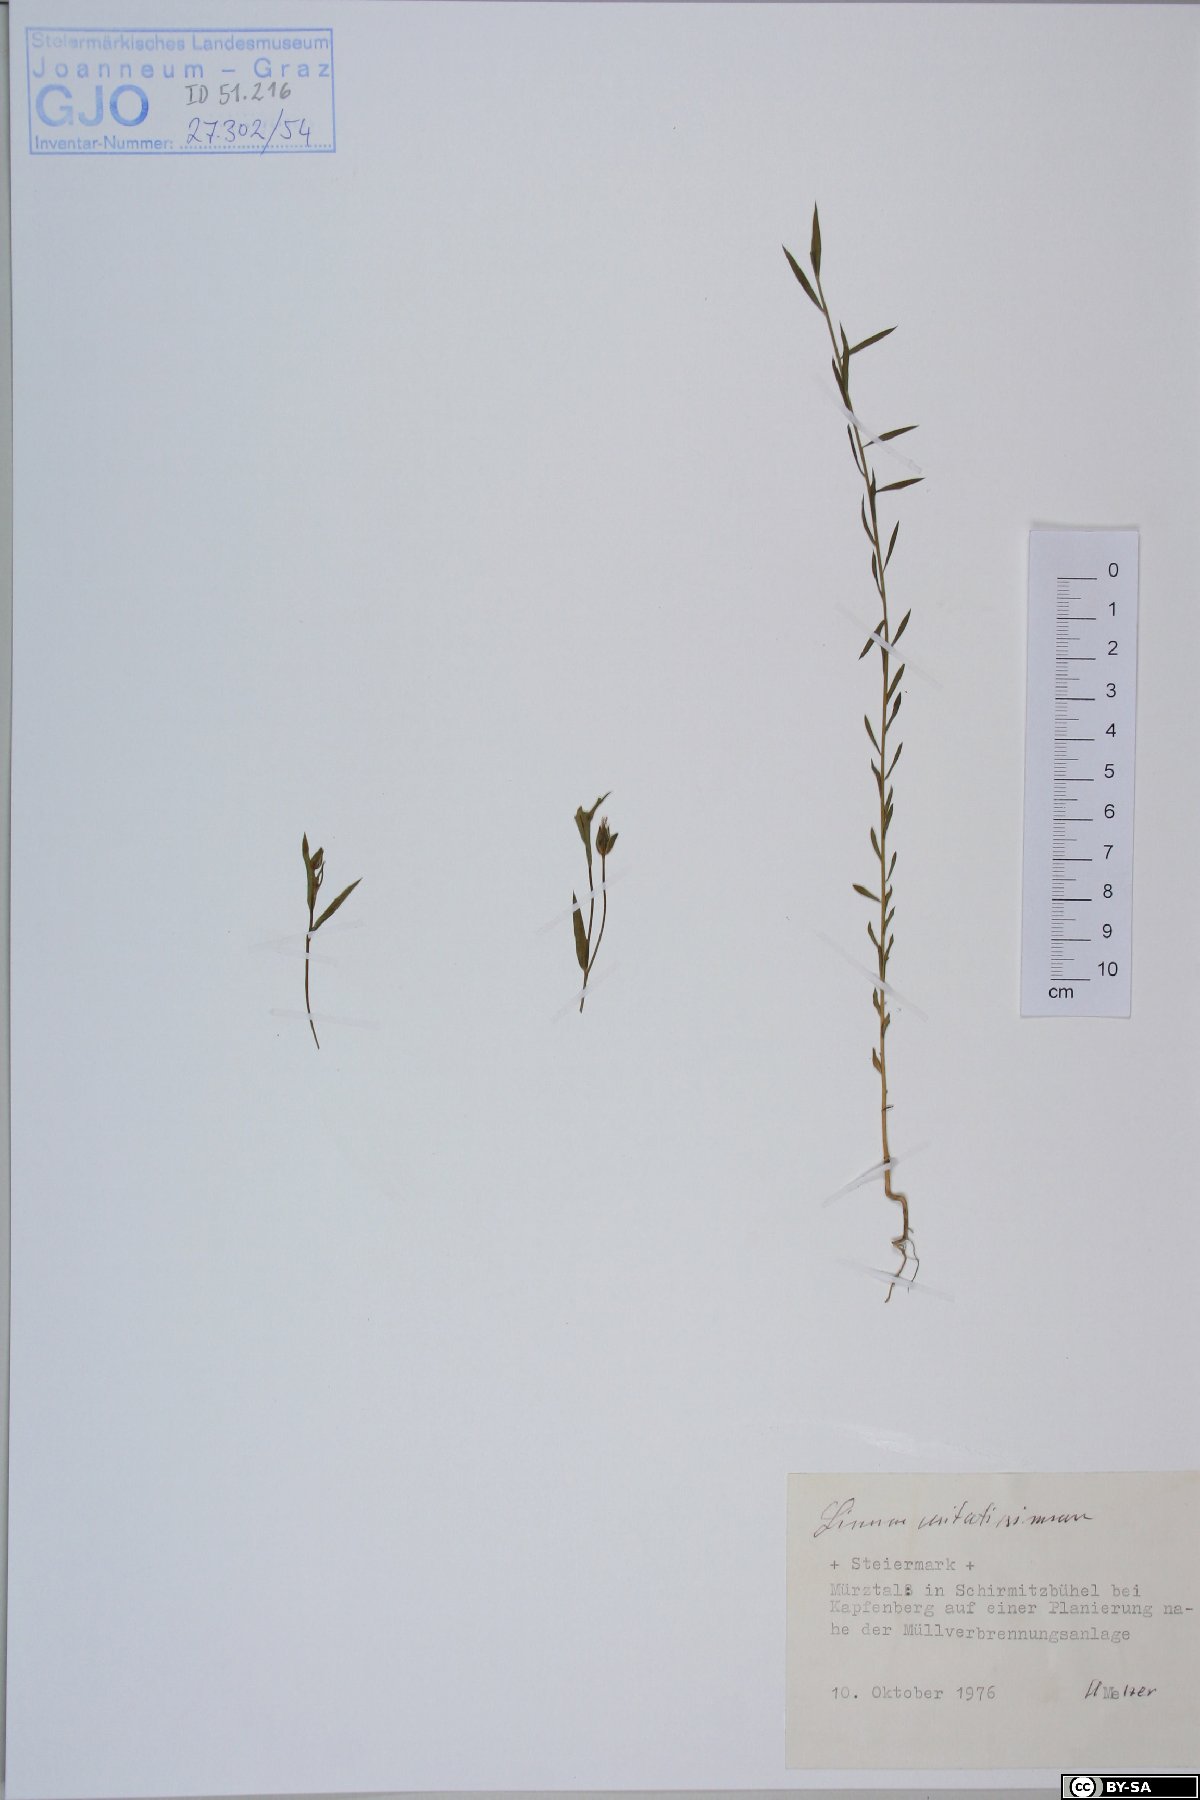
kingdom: Plantae
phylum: Tracheophyta
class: Magnoliopsida
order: Malpighiales
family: Linaceae
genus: Linum
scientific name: Linum usitatissimum
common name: Flax
